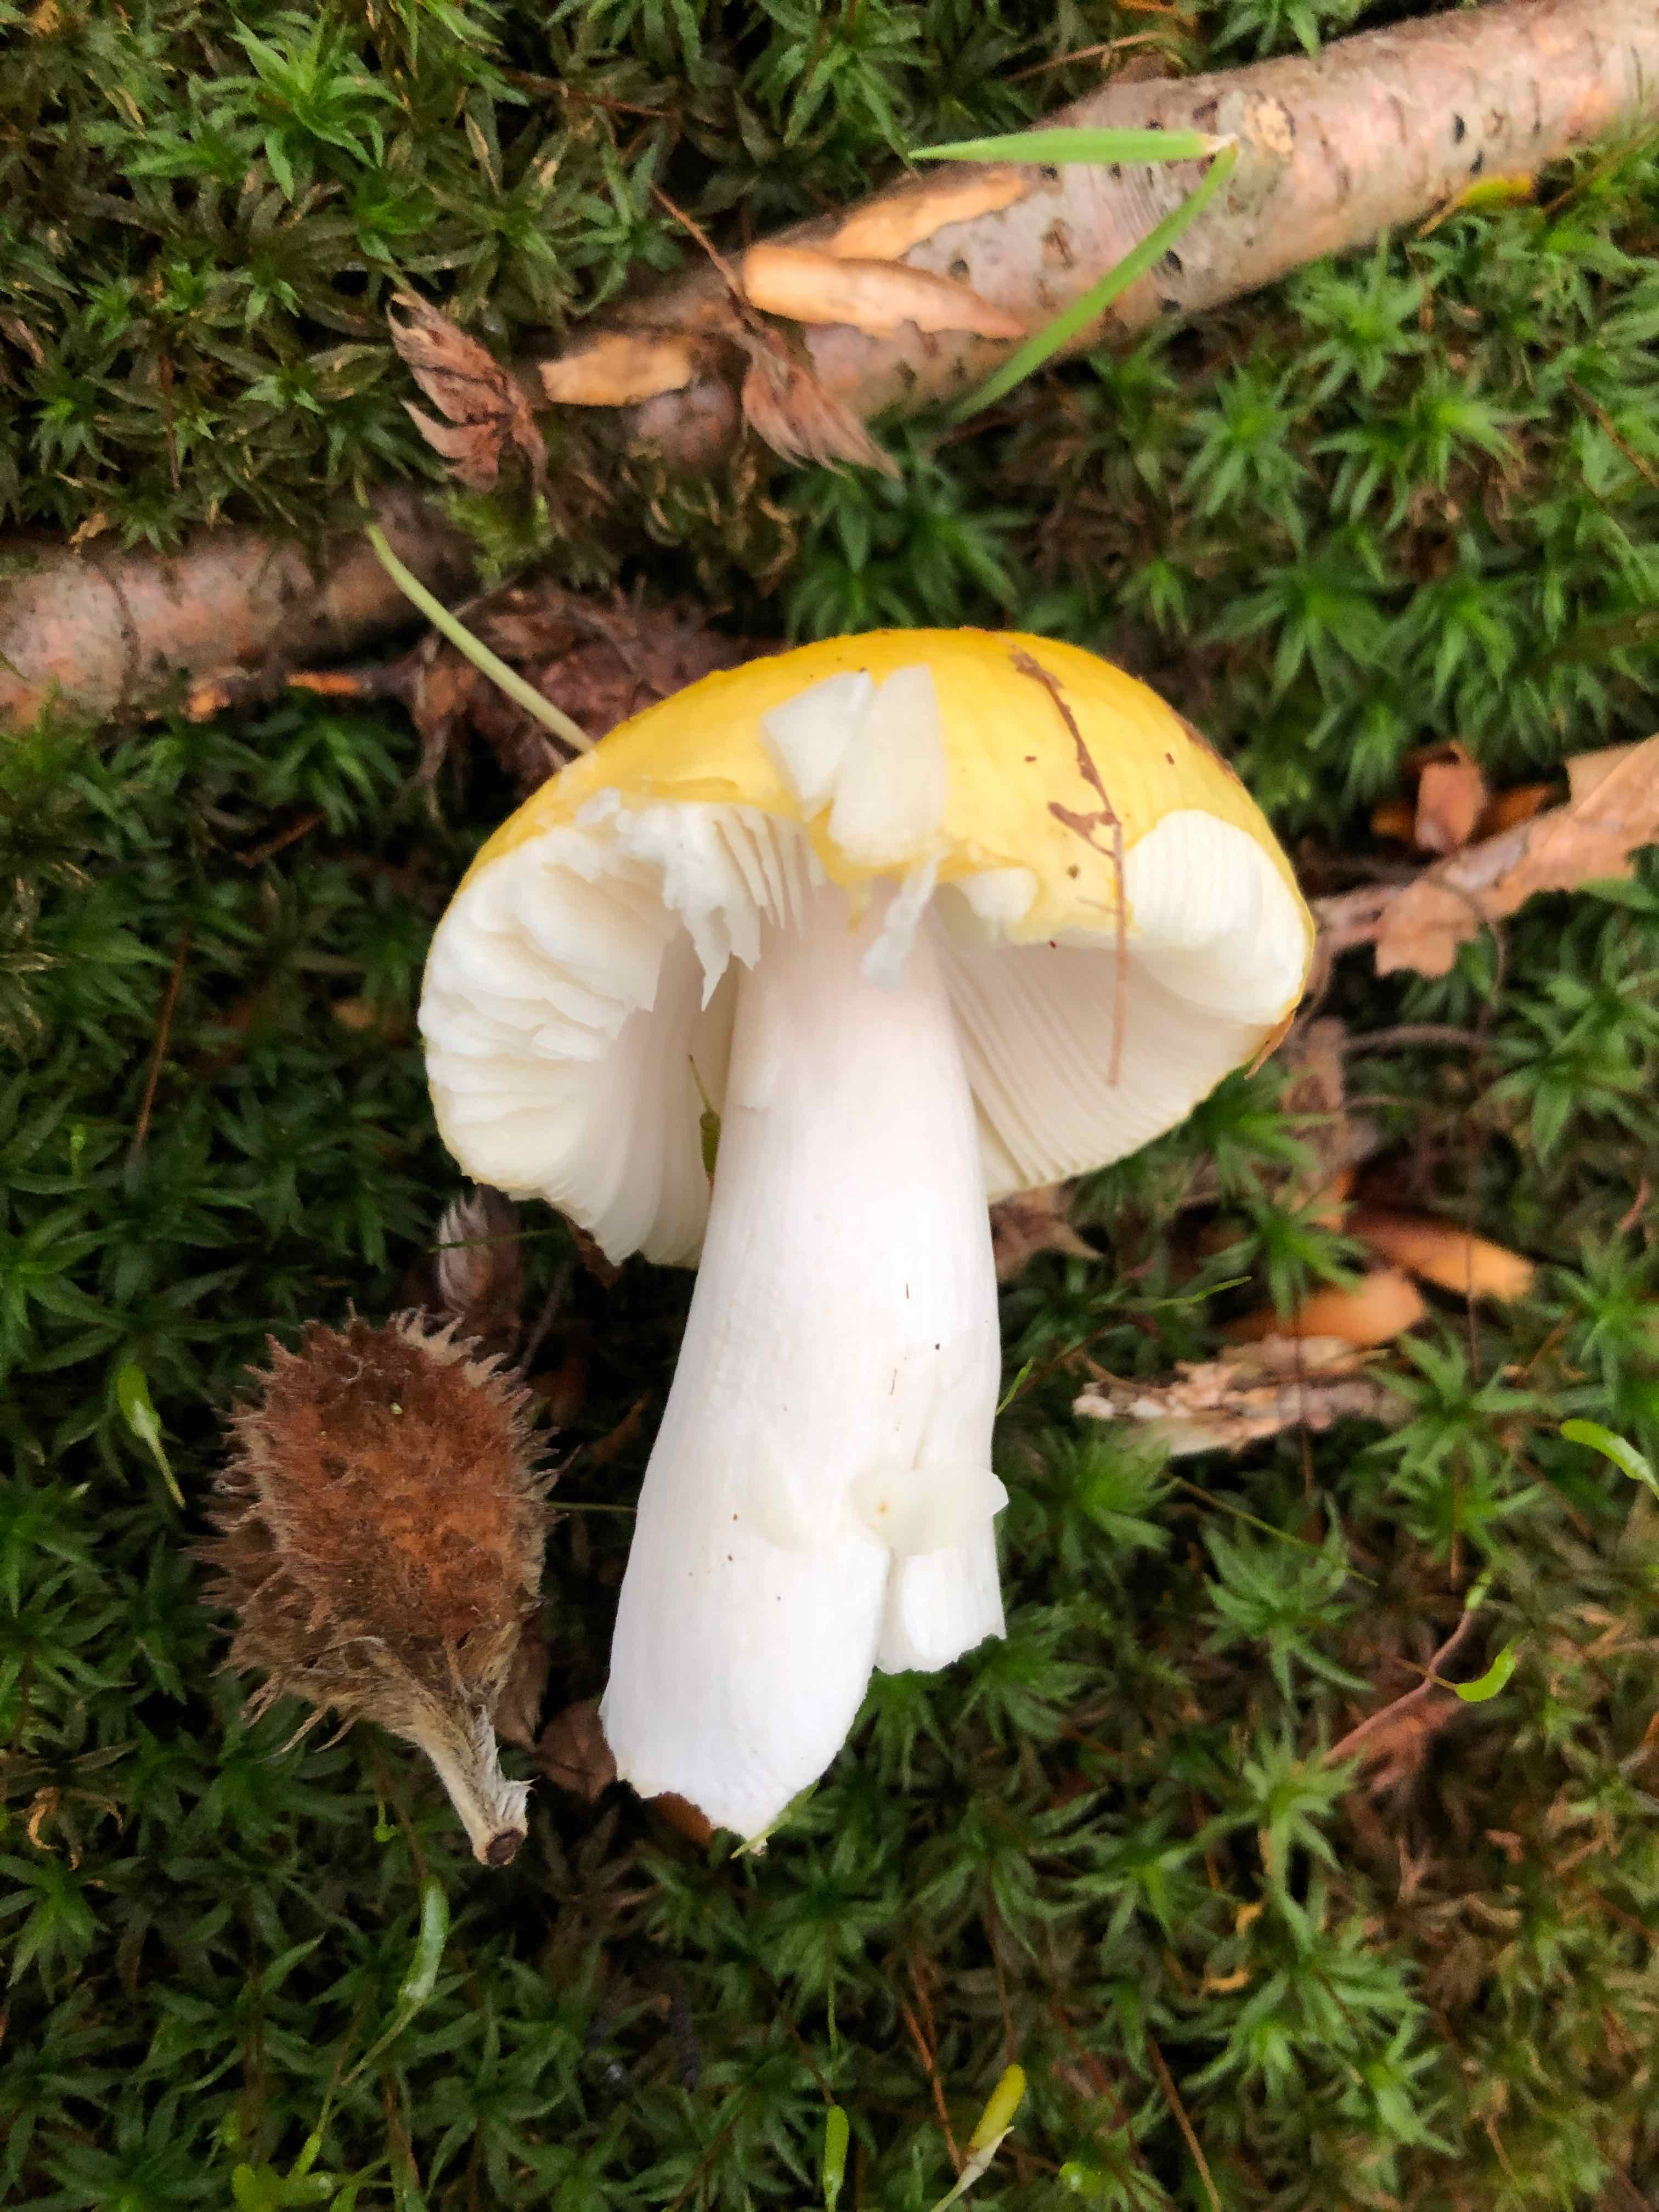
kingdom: Fungi
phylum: Basidiomycota
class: Agaricomycetes
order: Russulales
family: Russulaceae
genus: Russula
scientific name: Russula solaris
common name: sol-skørhat
